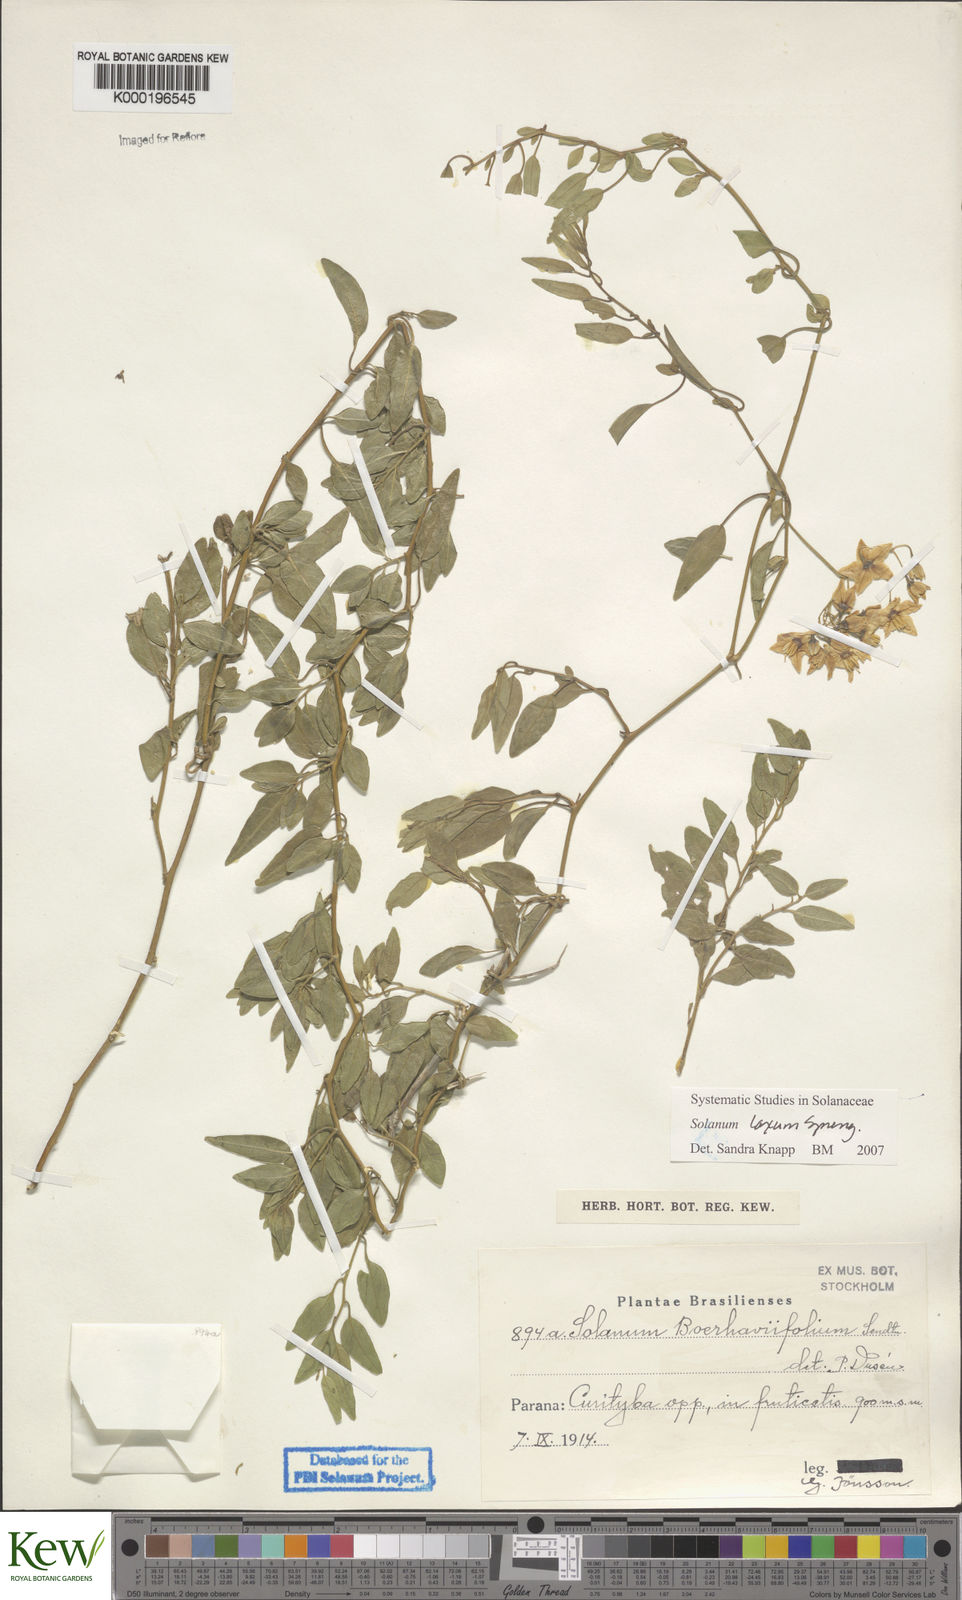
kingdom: Plantae
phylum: Tracheophyta
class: Magnoliopsida
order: Solanales
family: Solanaceae
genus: Solanum
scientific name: Solanum laxum
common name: Nightshade
